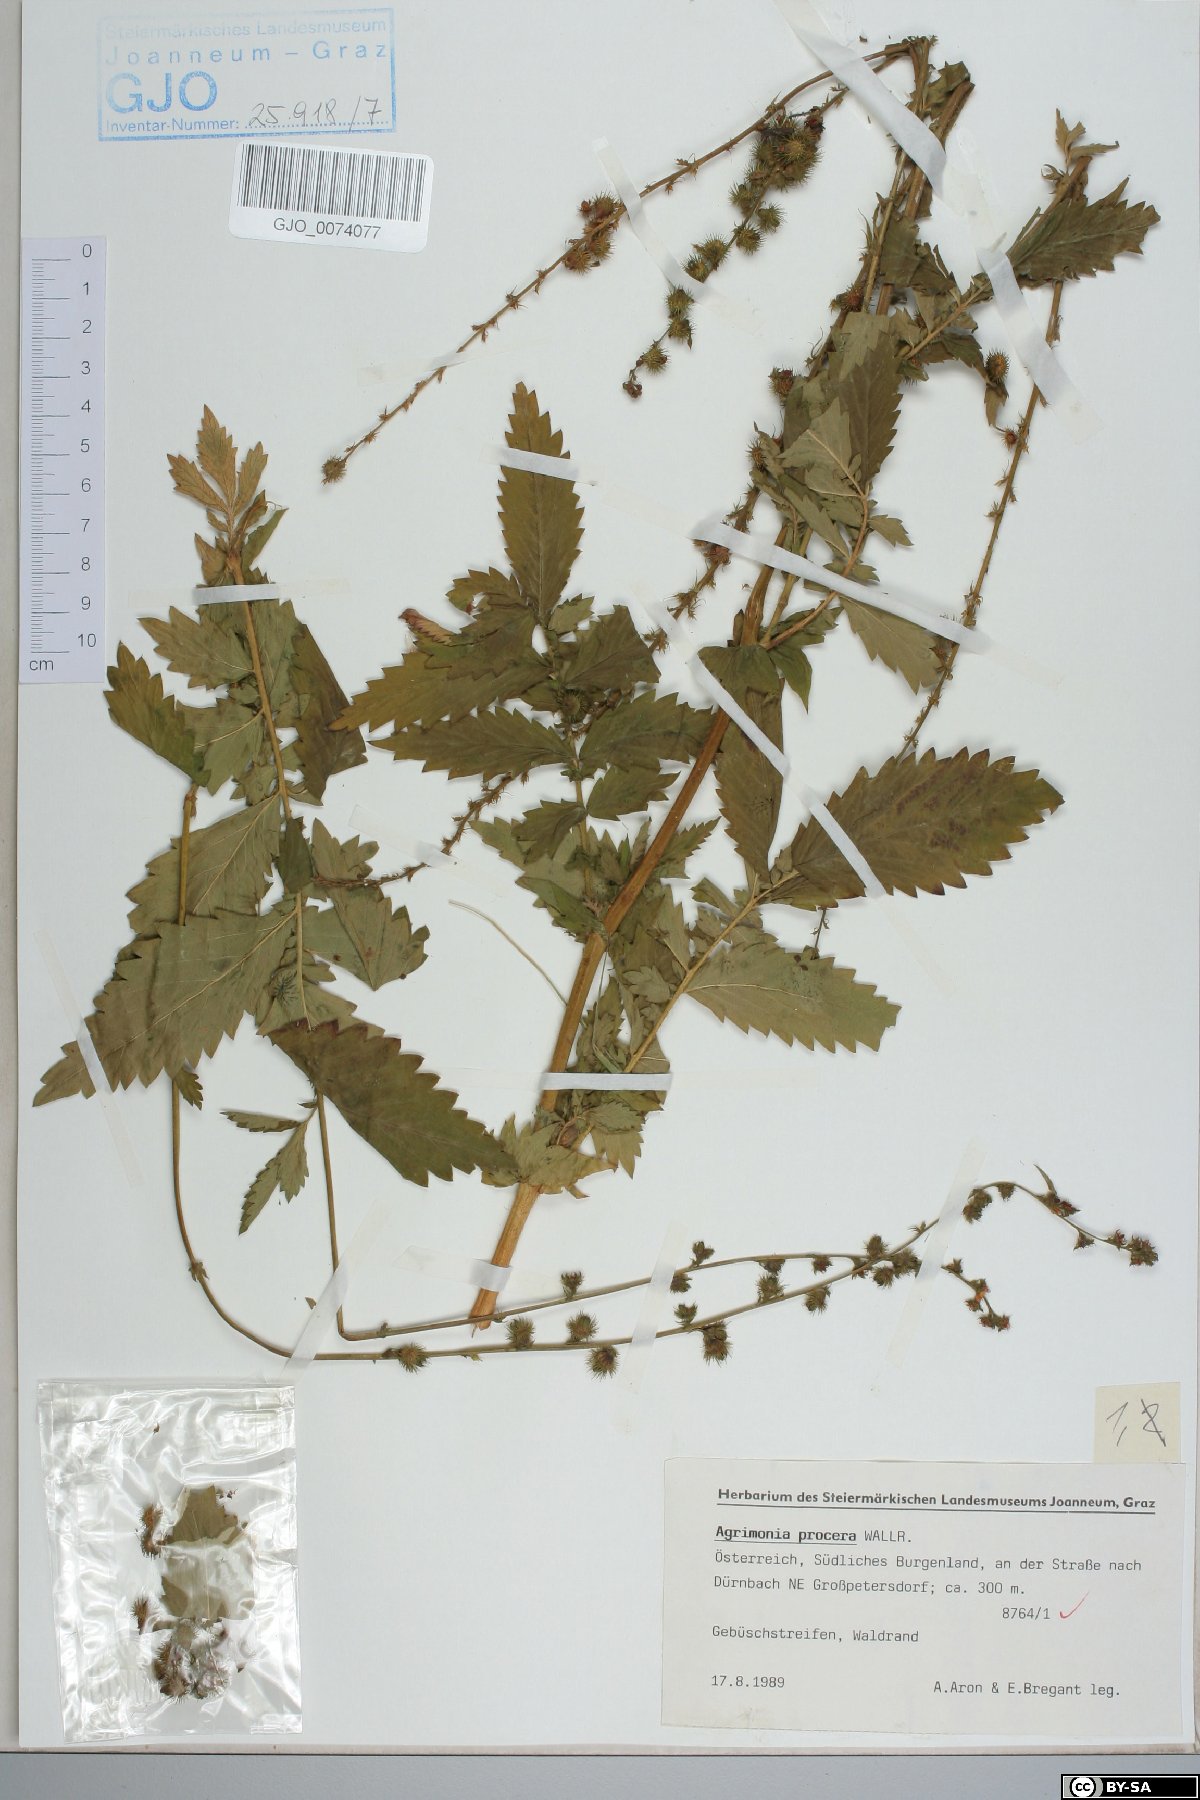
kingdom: Plantae
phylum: Tracheophyta
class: Magnoliopsida
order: Rosales
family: Rosaceae
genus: Agrimonia
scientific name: Agrimonia procera
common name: Fragrant agrimony
